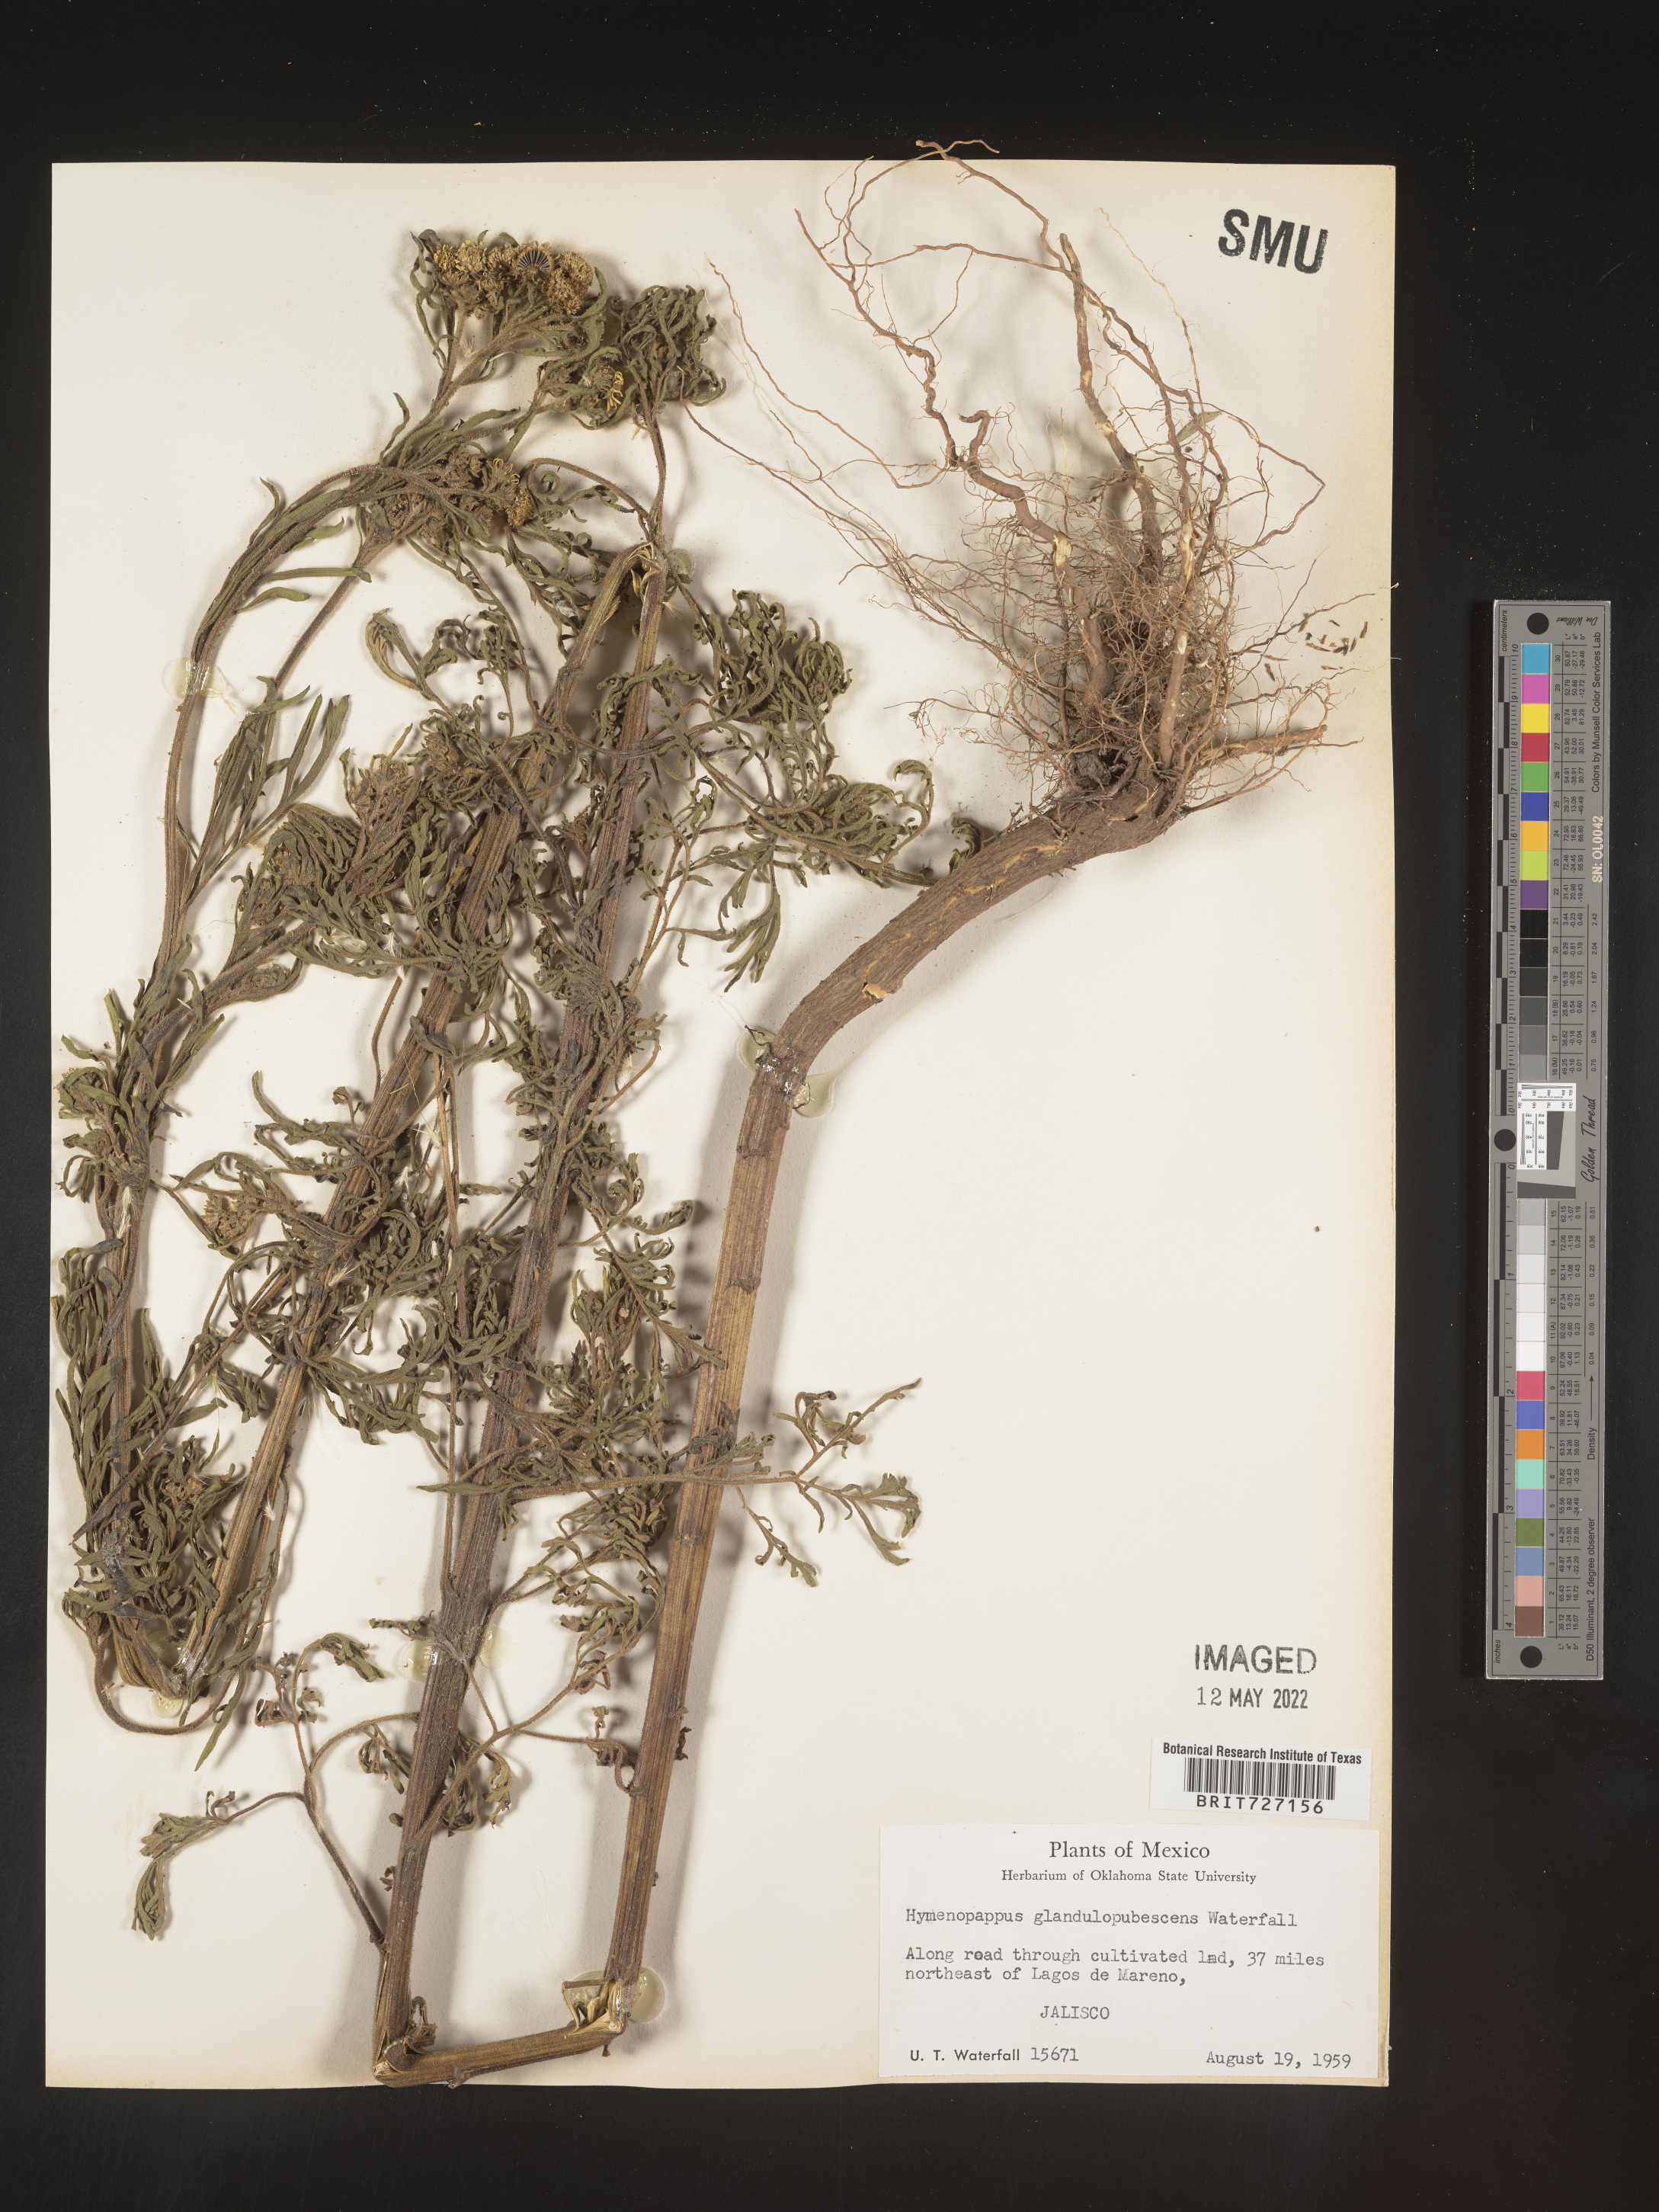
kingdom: Plantae
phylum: Tracheophyta
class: Magnoliopsida
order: Asterales
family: Asteraceae
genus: Hymenopappus
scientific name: Hymenopappus
